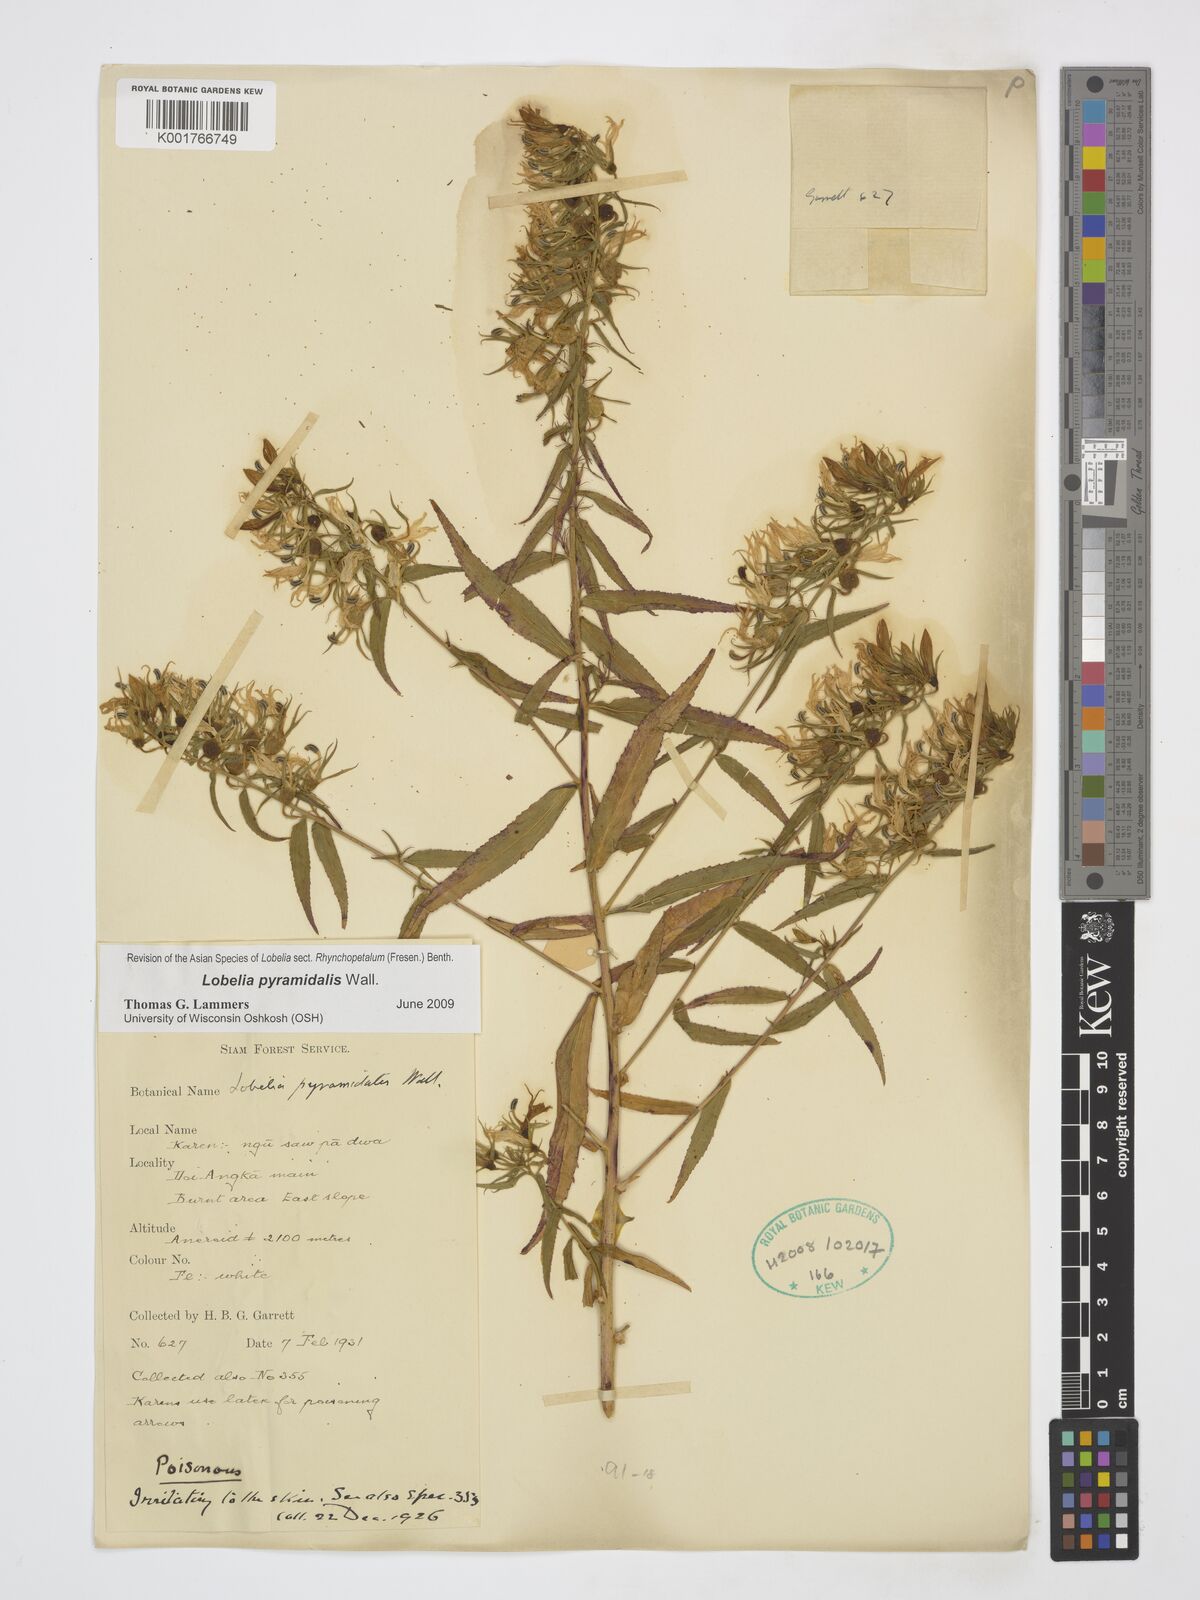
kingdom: Plantae
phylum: Tracheophyta
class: Magnoliopsida
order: Asterales
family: Campanulaceae
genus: Lobelia
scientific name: Lobelia pyramidalis
